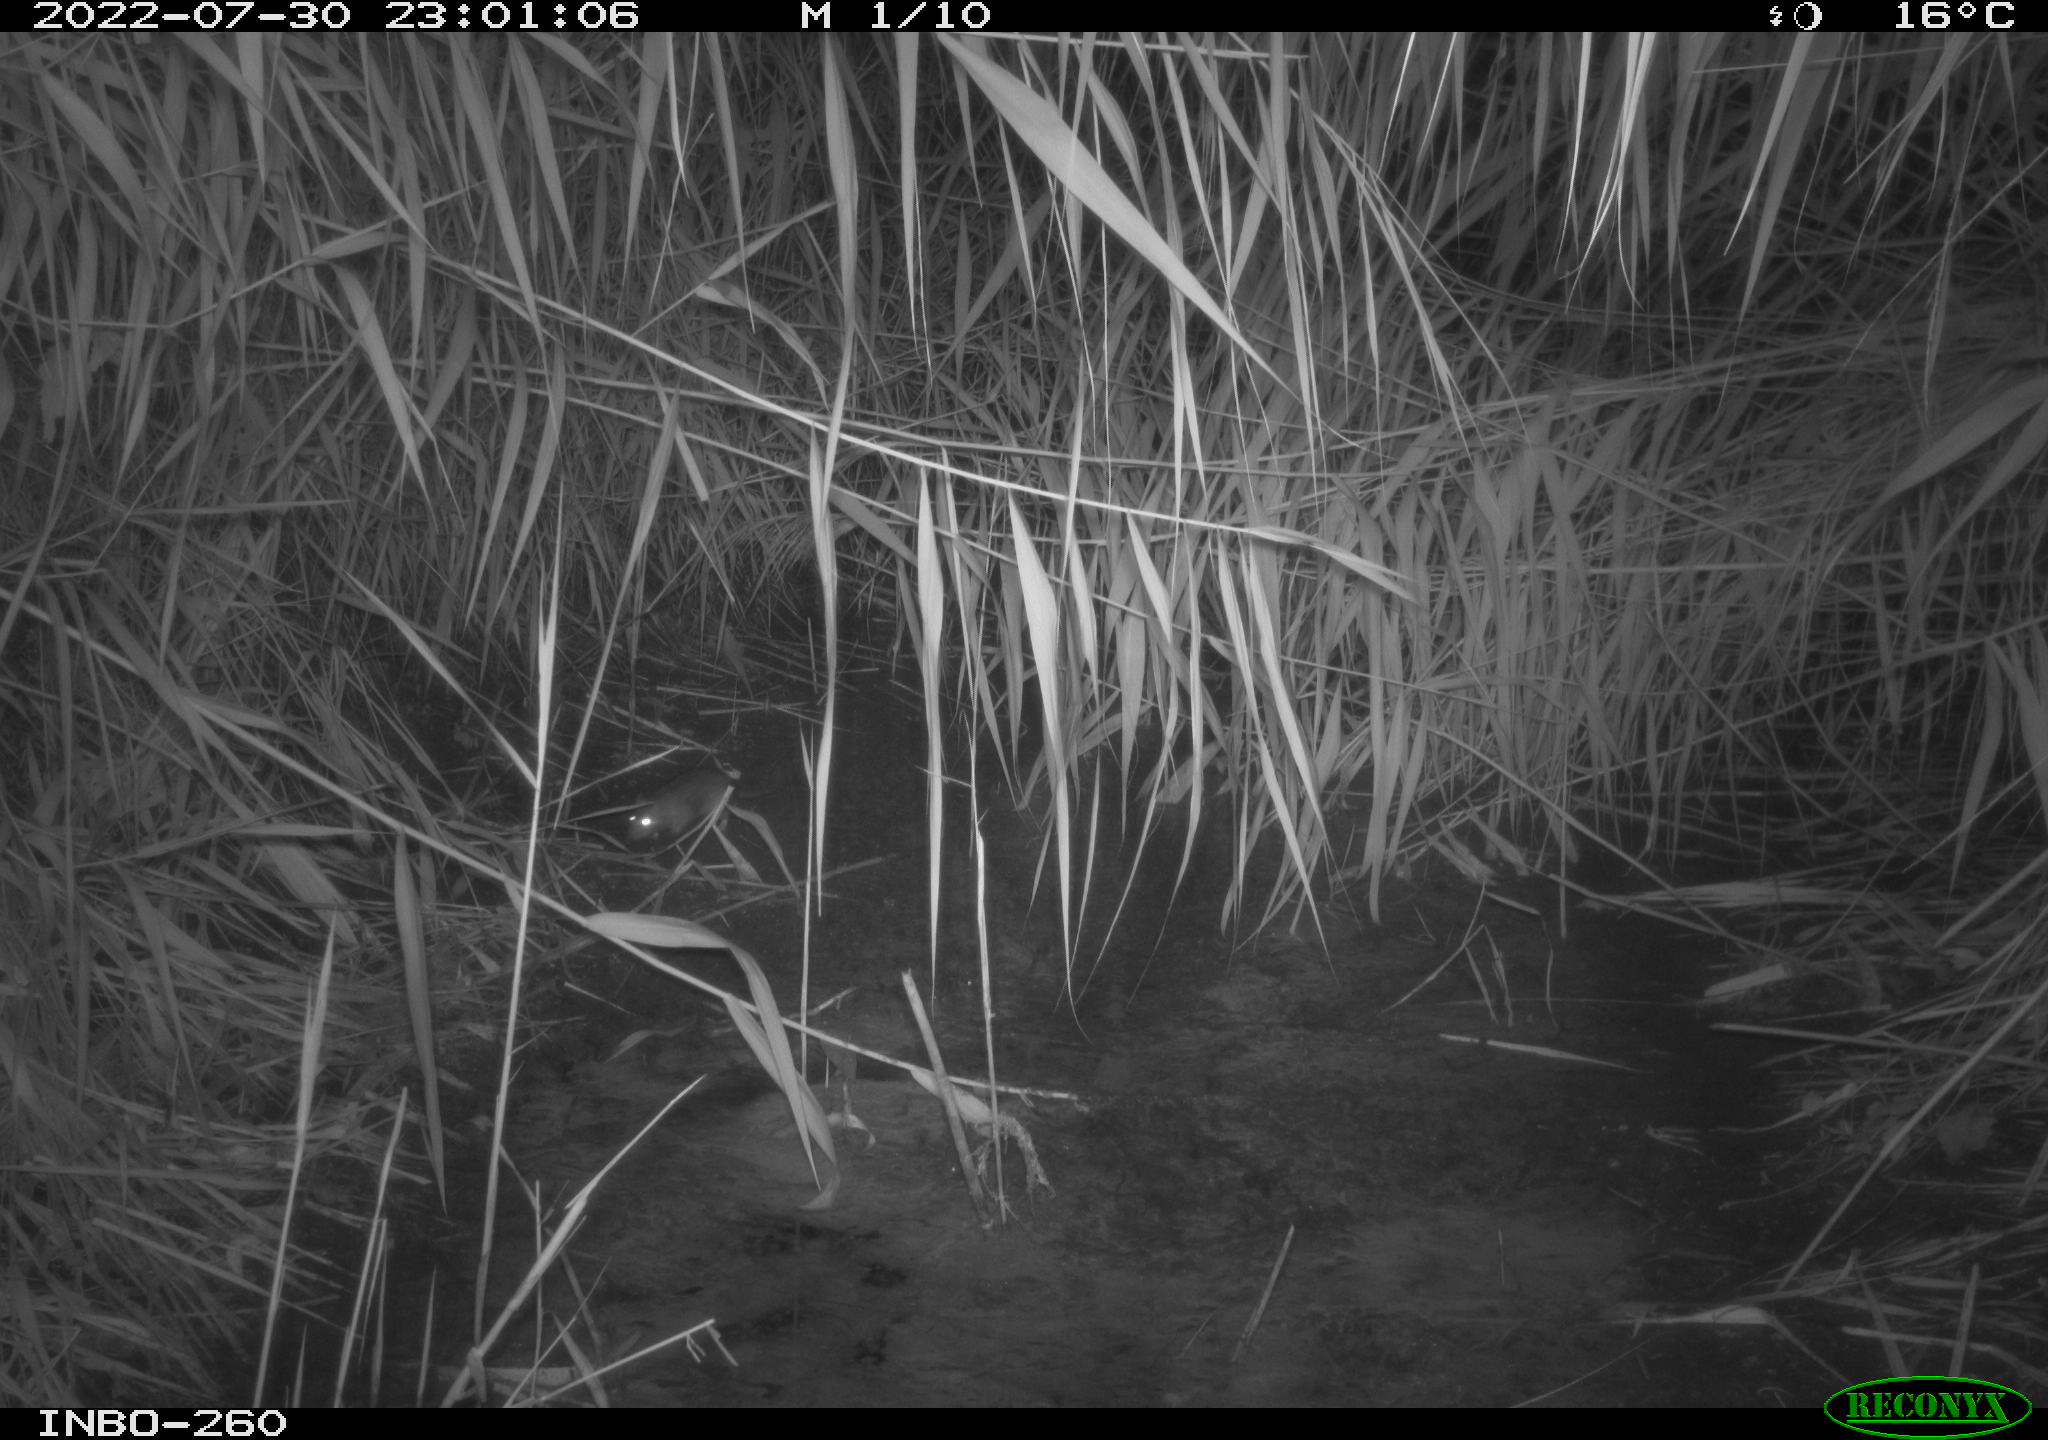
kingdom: Animalia
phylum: Chordata
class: Mammalia
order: Rodentia
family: Muridae
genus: Rattus
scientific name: Rattus norvegicus
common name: Brown rat
